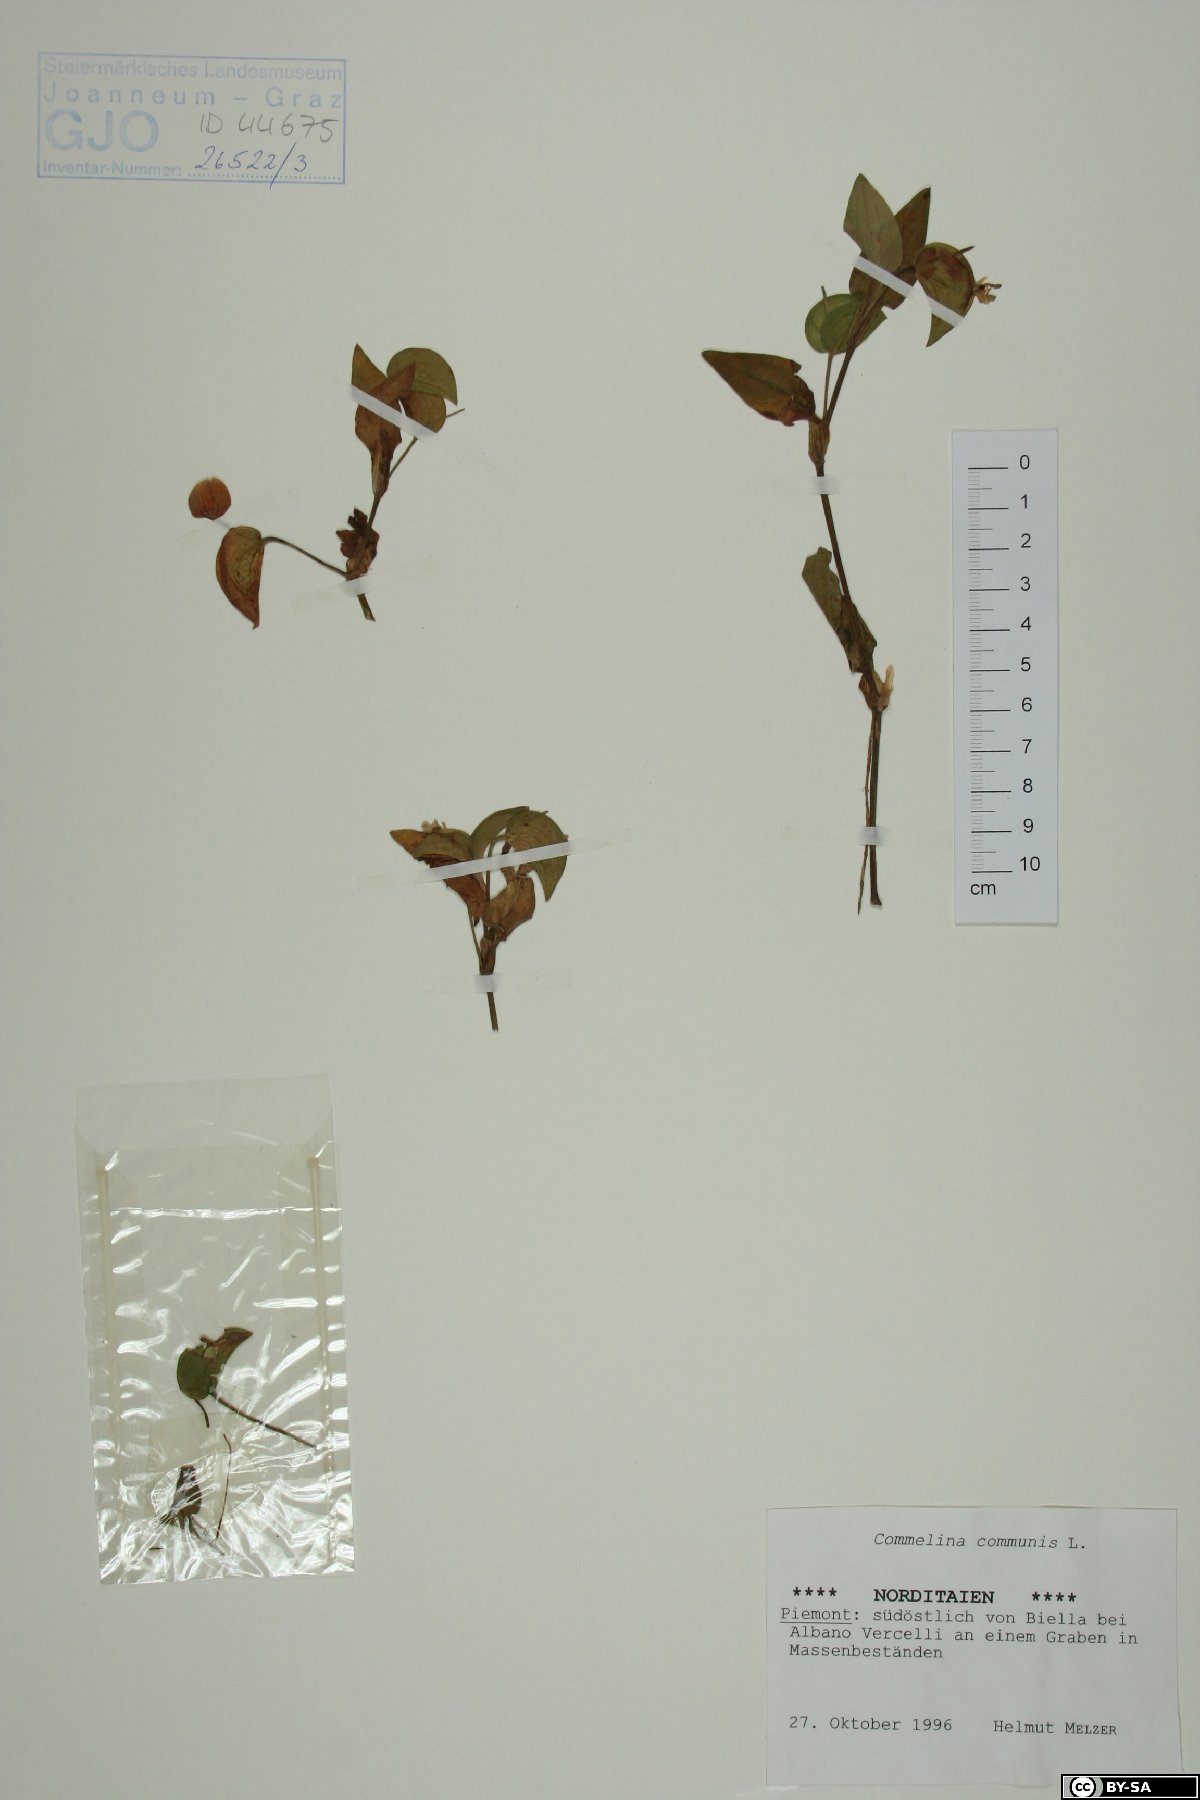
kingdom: Plantae
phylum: Tracheophyta
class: Liliopsida
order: Commelinales
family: Commelinaceae
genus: Commelina
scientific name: Commelina communis
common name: Asiatic dayflower
